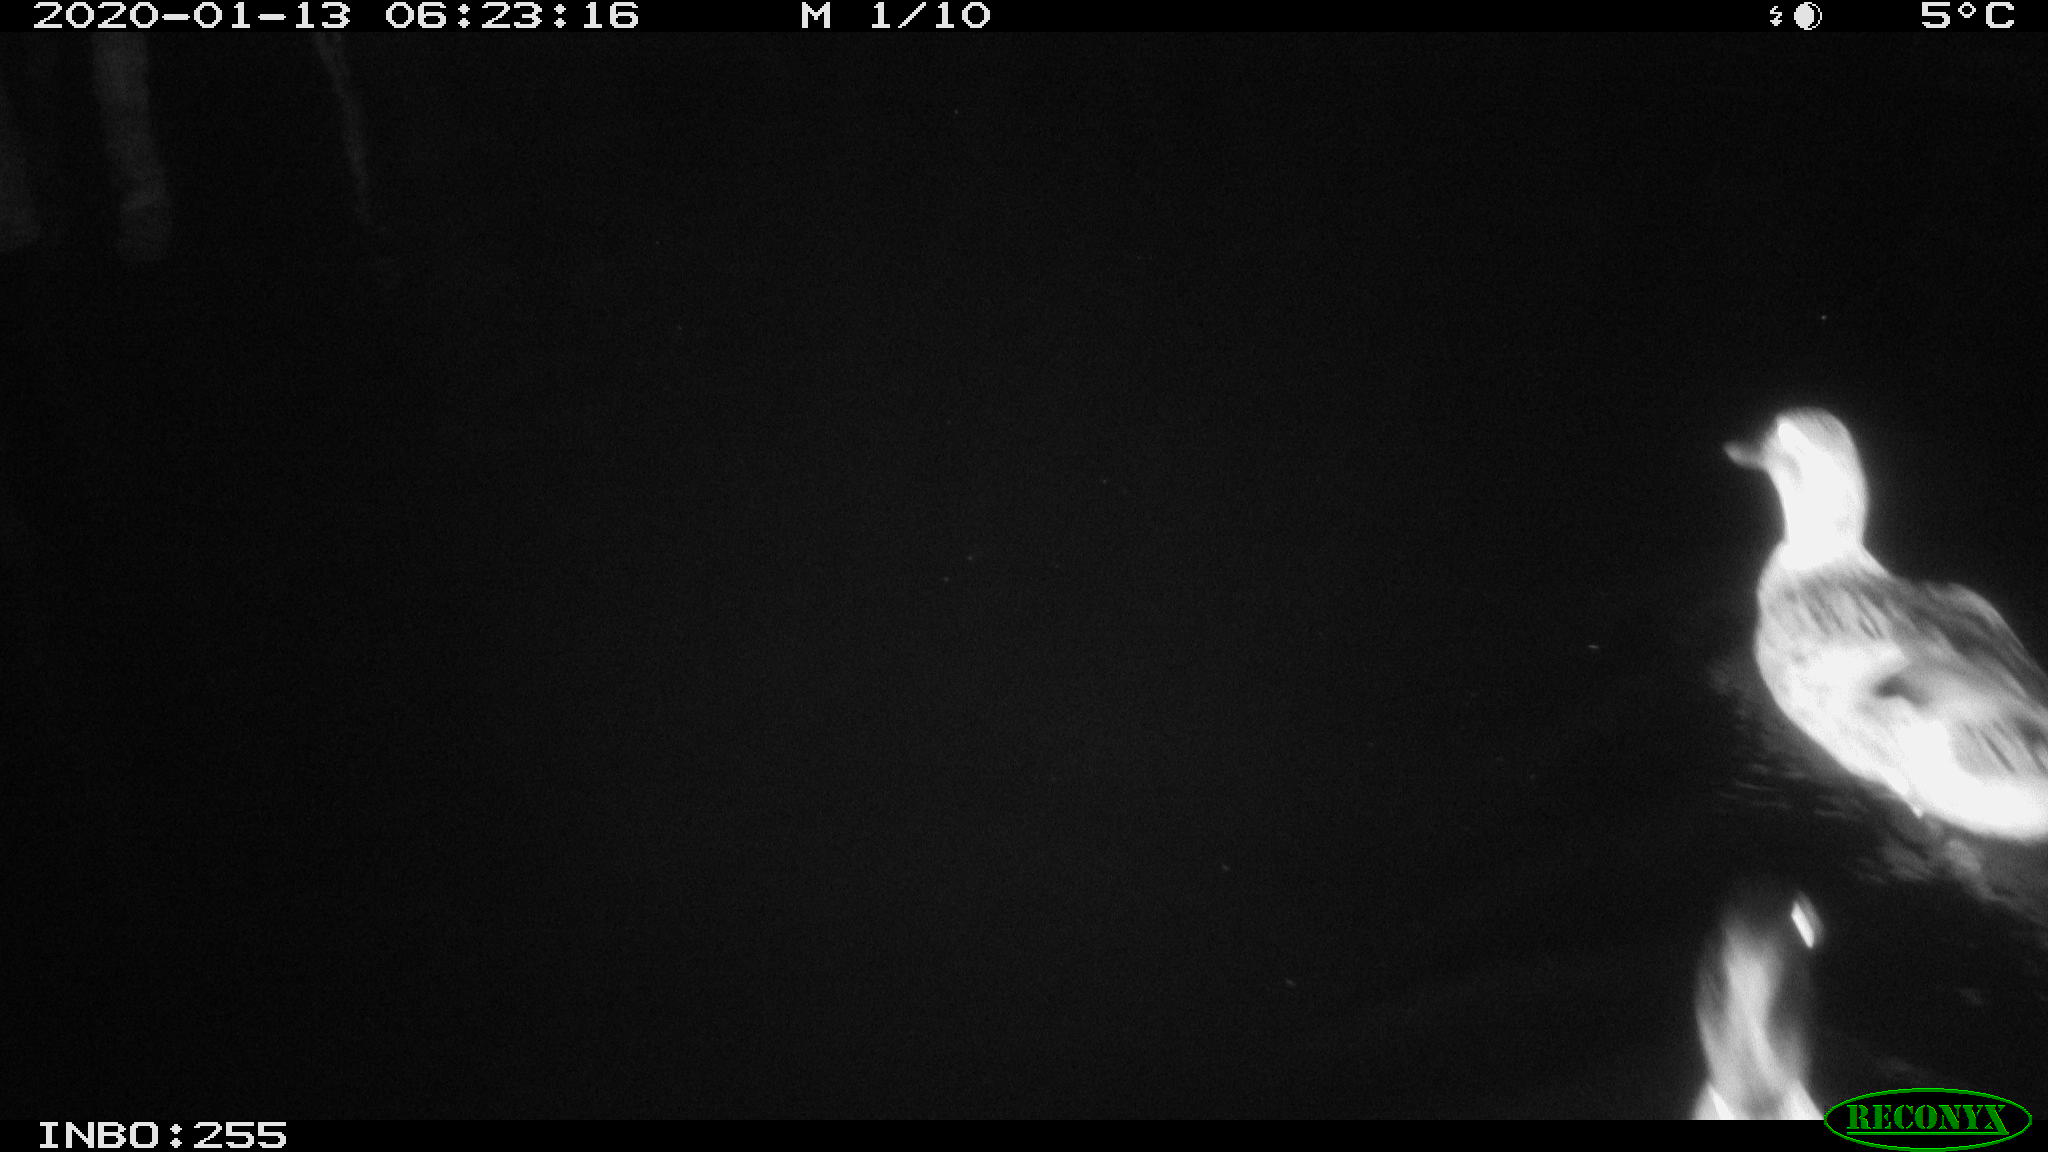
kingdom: Animalia
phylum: Chordata
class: Aves
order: Anseriformes
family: Anatidae
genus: Anas
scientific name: Anas platyrhynchos
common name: Mallard
